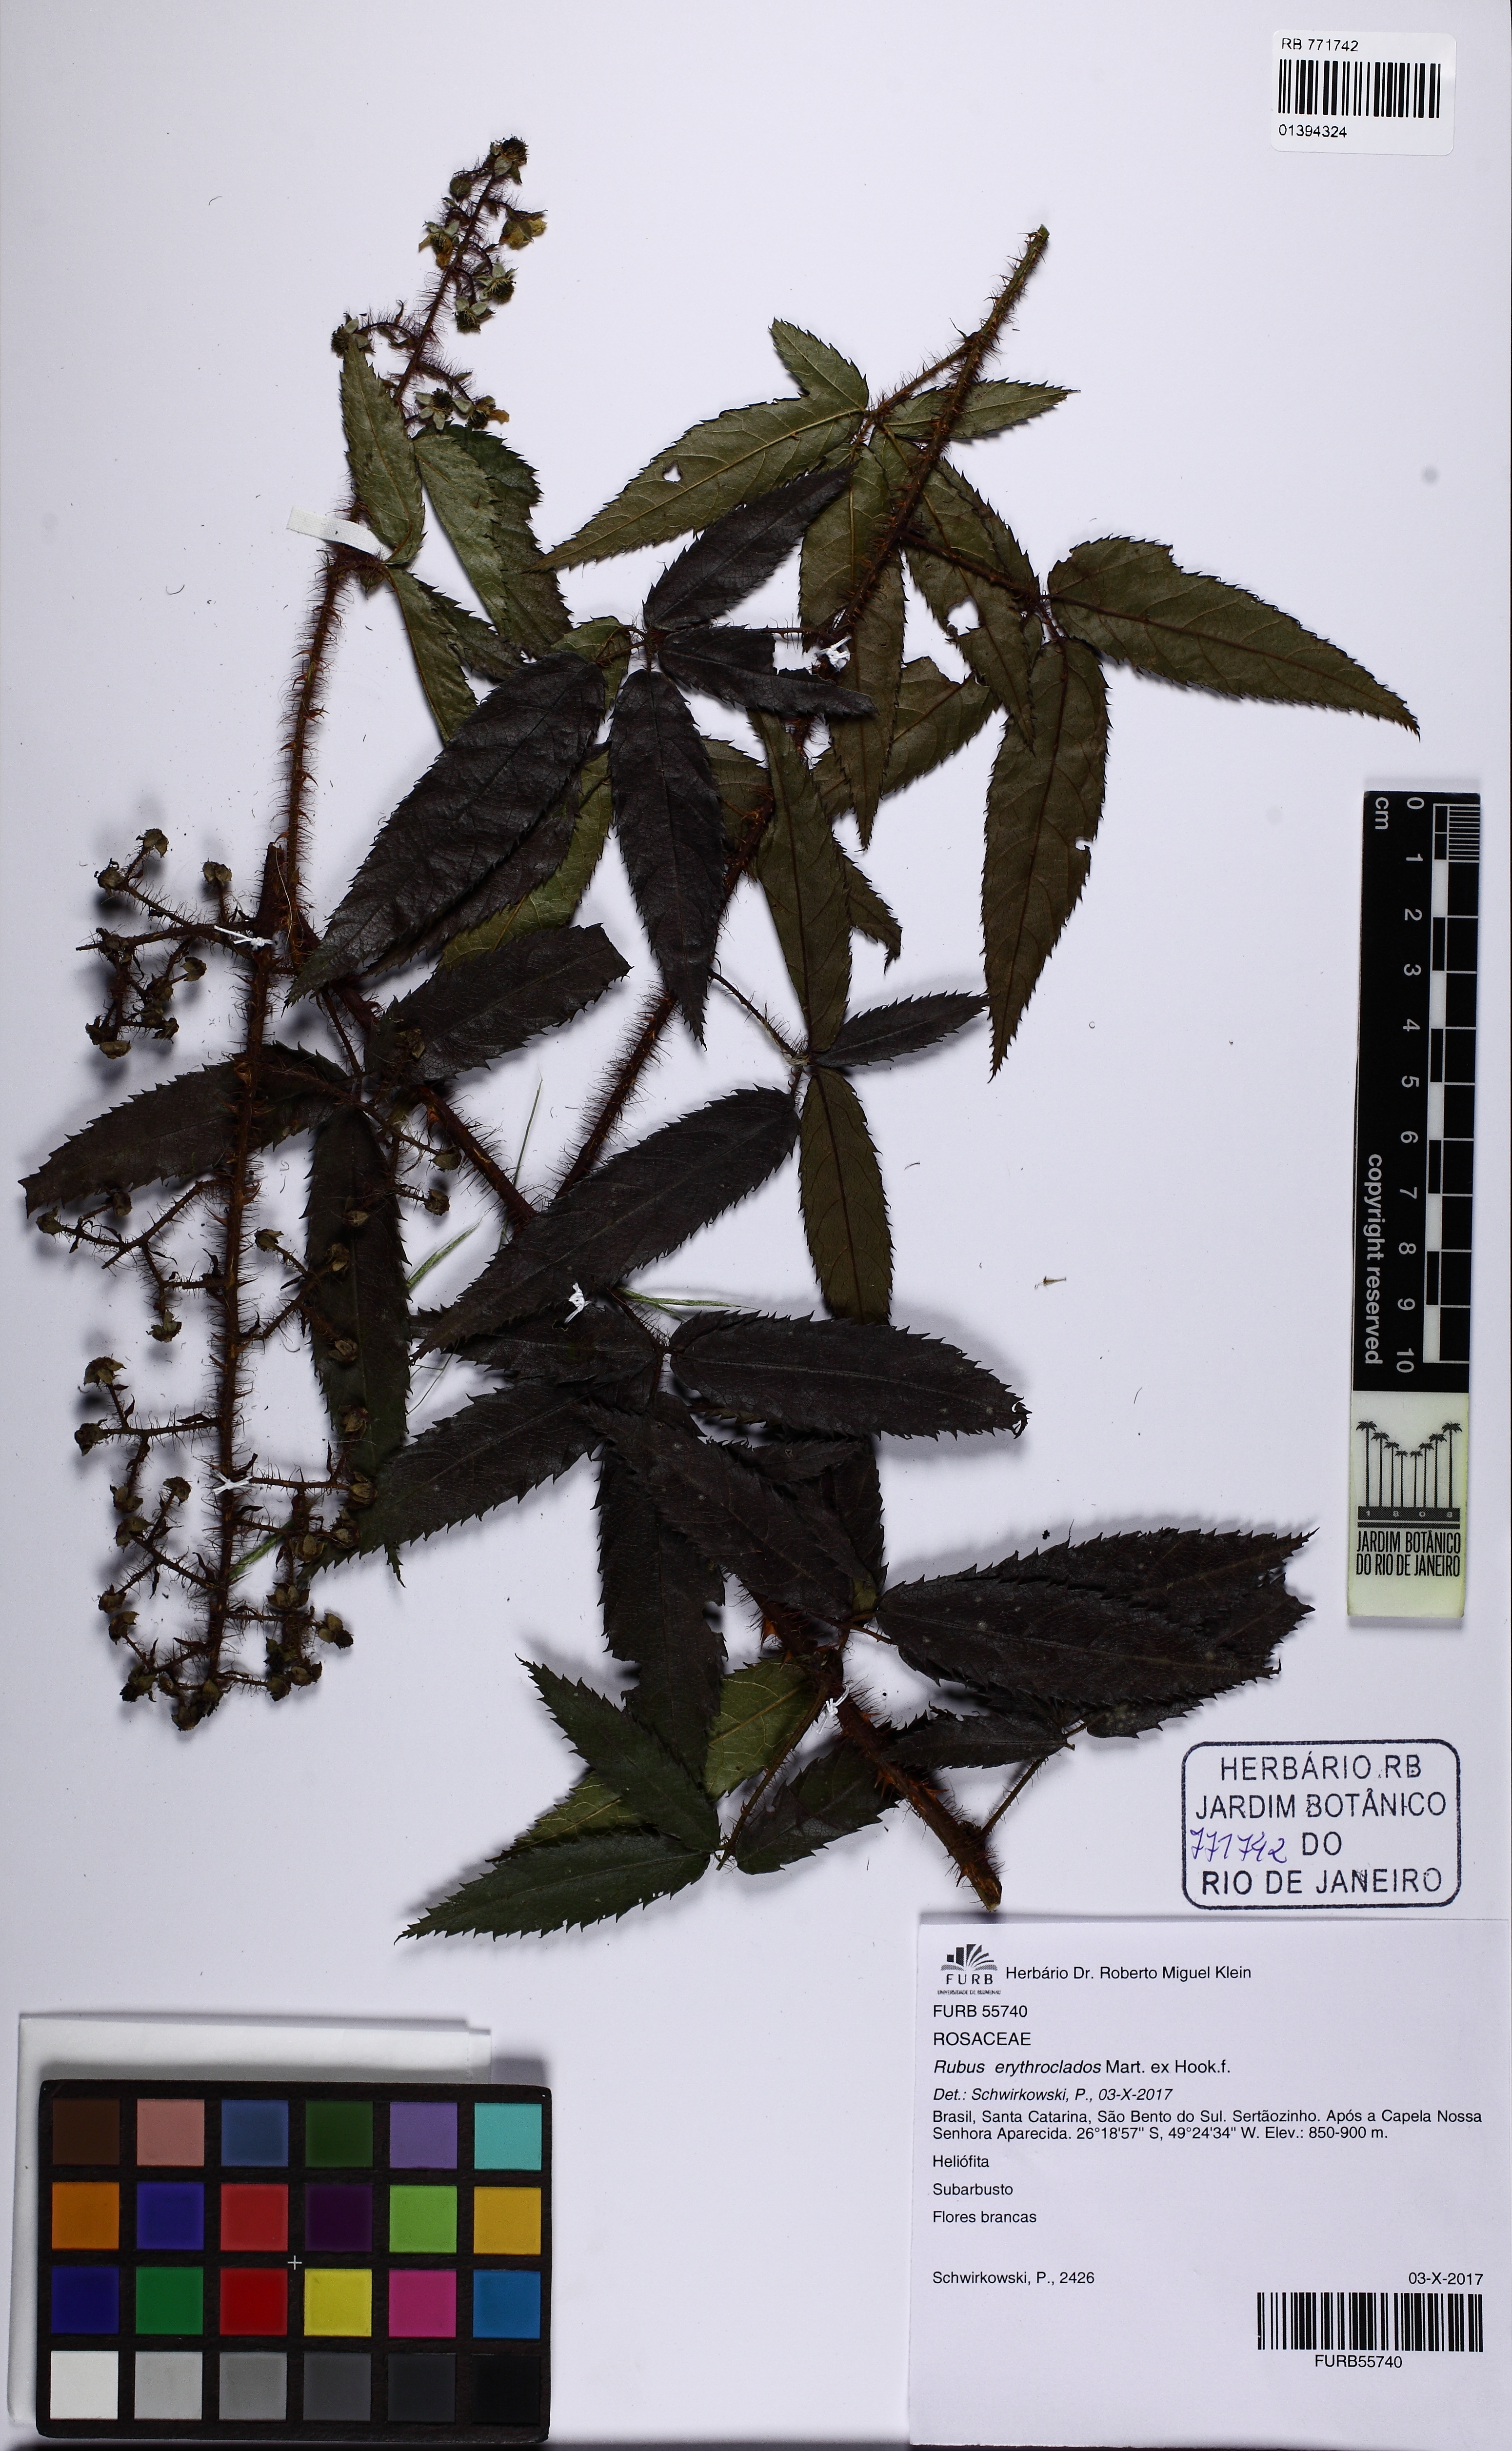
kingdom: Plantae
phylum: Tracheophyta
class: Magnoliopsida
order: Rosales
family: Rosaceae
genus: Rubus
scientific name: Rubus erythroclados
